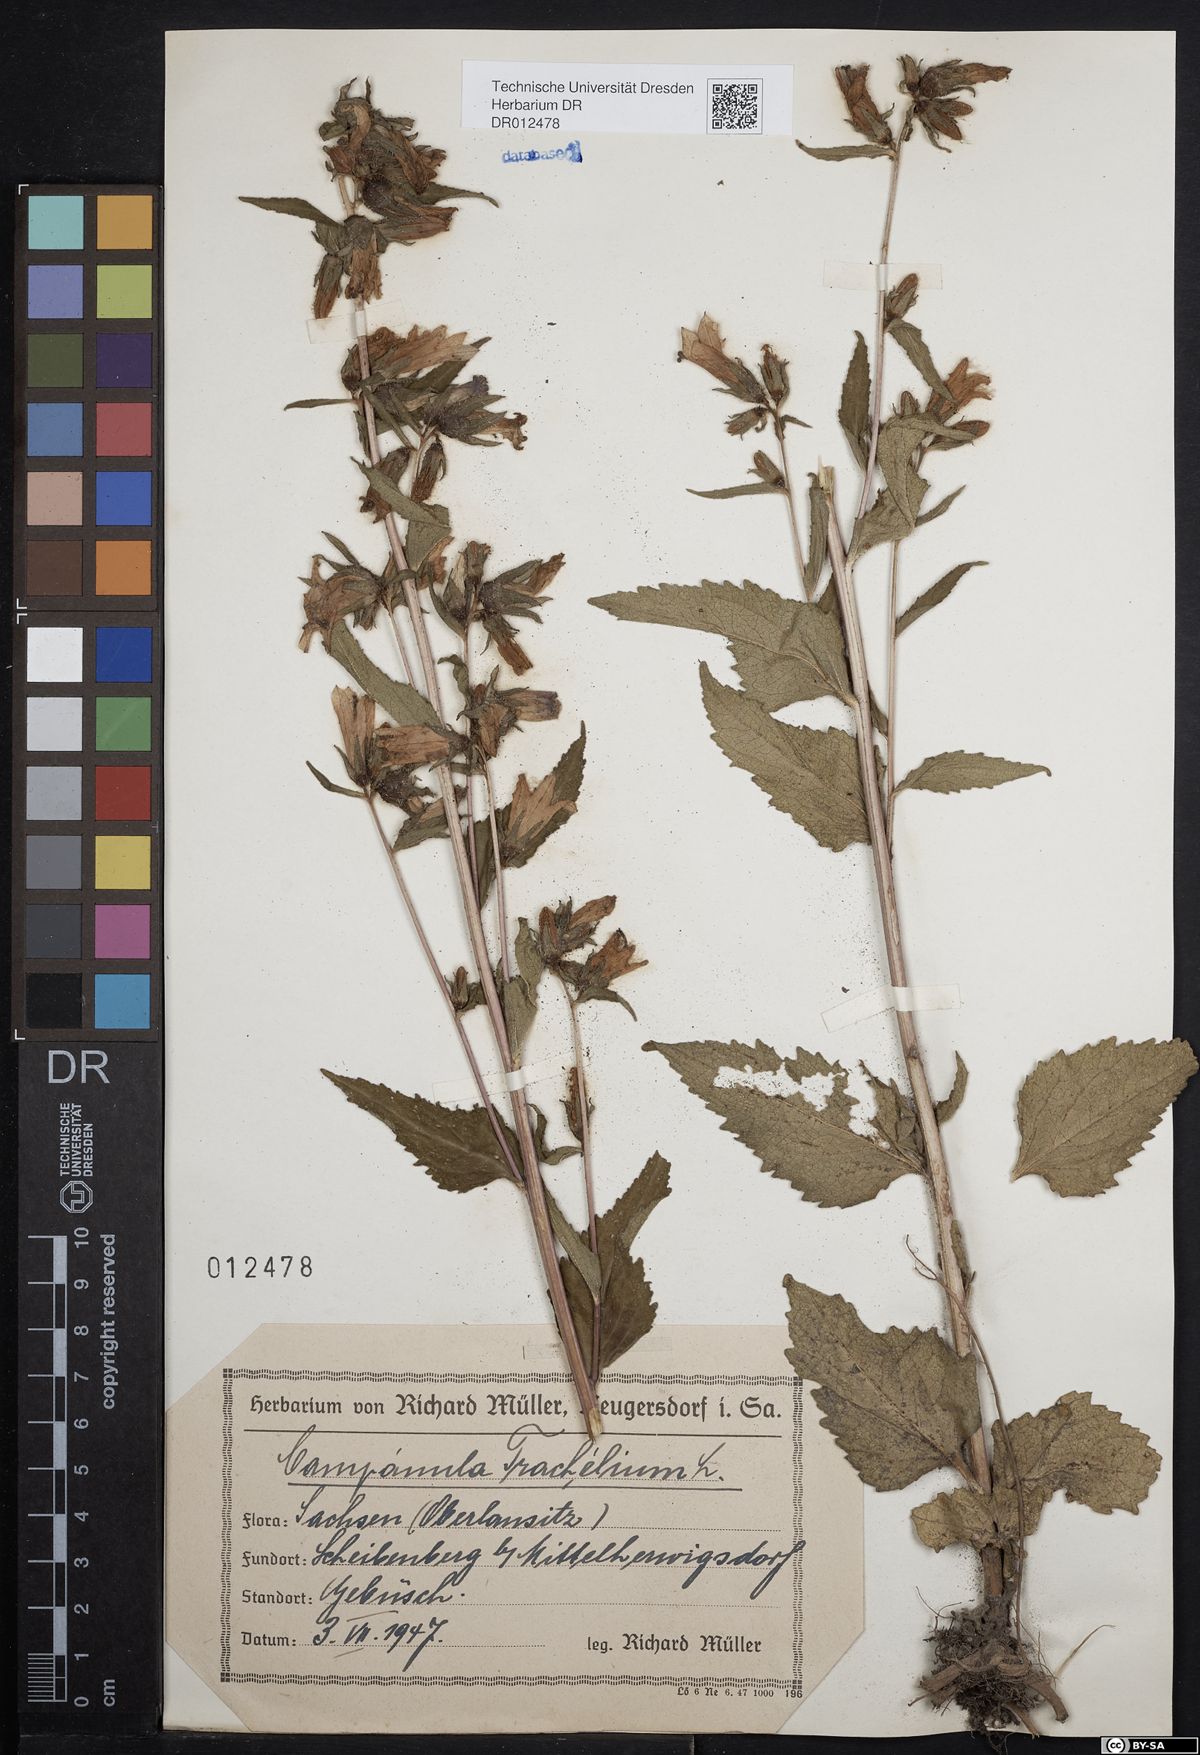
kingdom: Plantae
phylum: Tracheophyta
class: Magnoliopsida
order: Asterales
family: Campanulaceae
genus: Campanula
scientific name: Campanula trachelium
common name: Nettle-leaved bellflower
